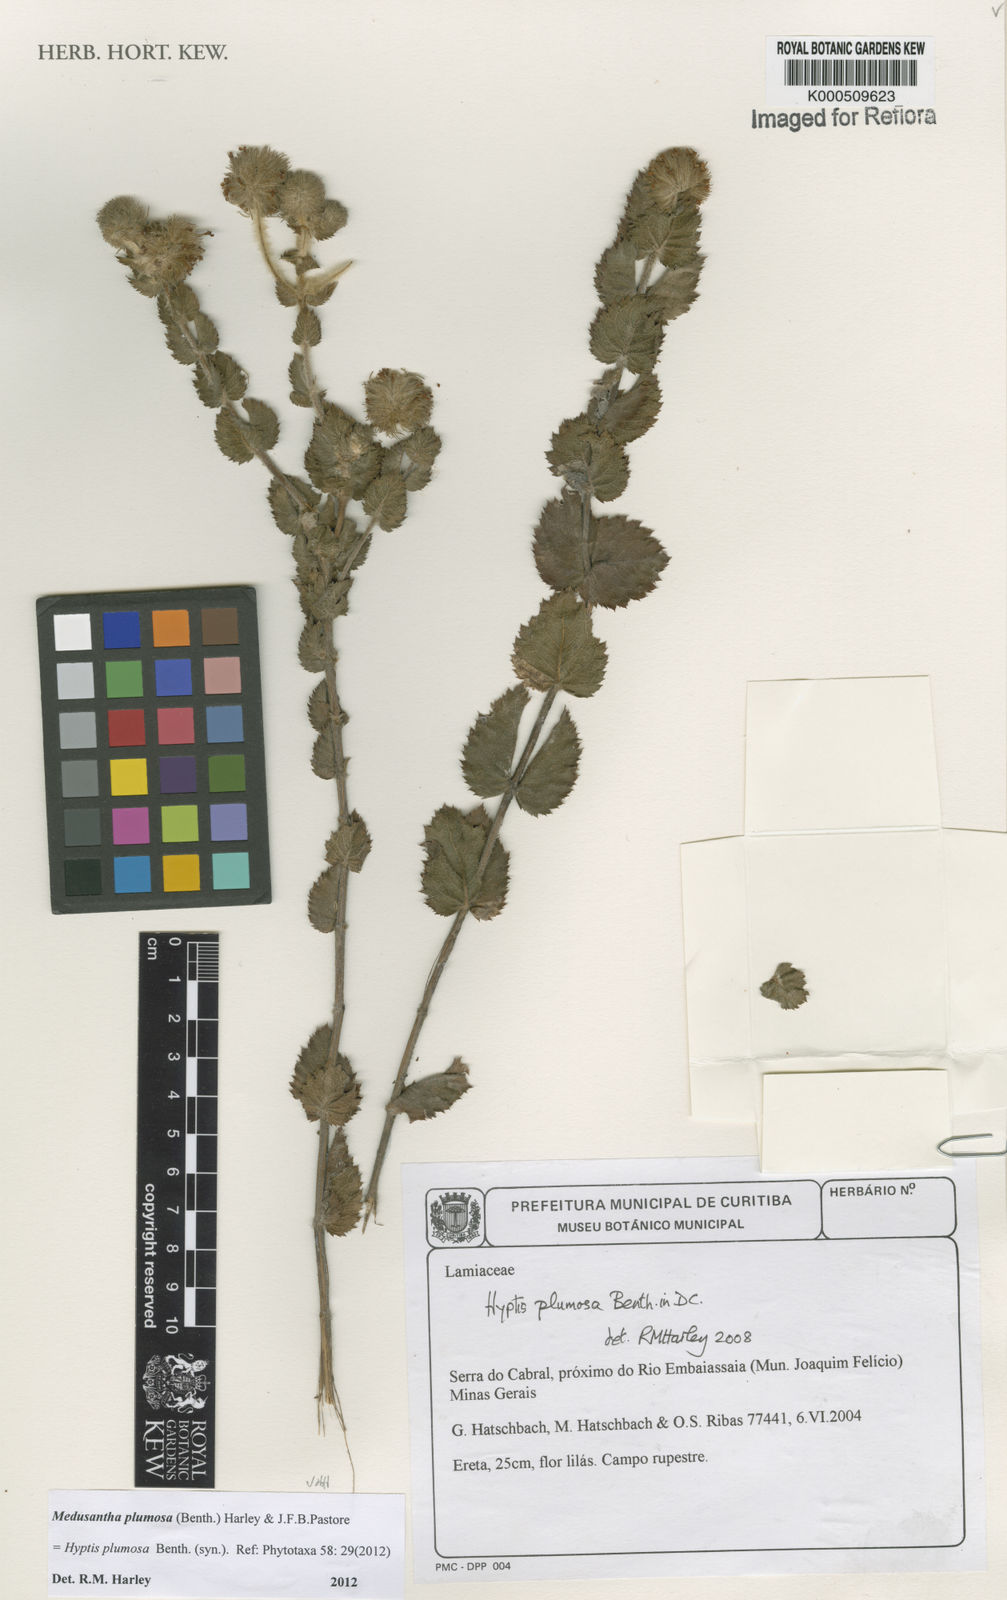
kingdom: Plantae
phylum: Tracheophyta
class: Magnoliopsida
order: Lamiales
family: Lamiaceae
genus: Medusantha
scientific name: Medusantha plumosa
